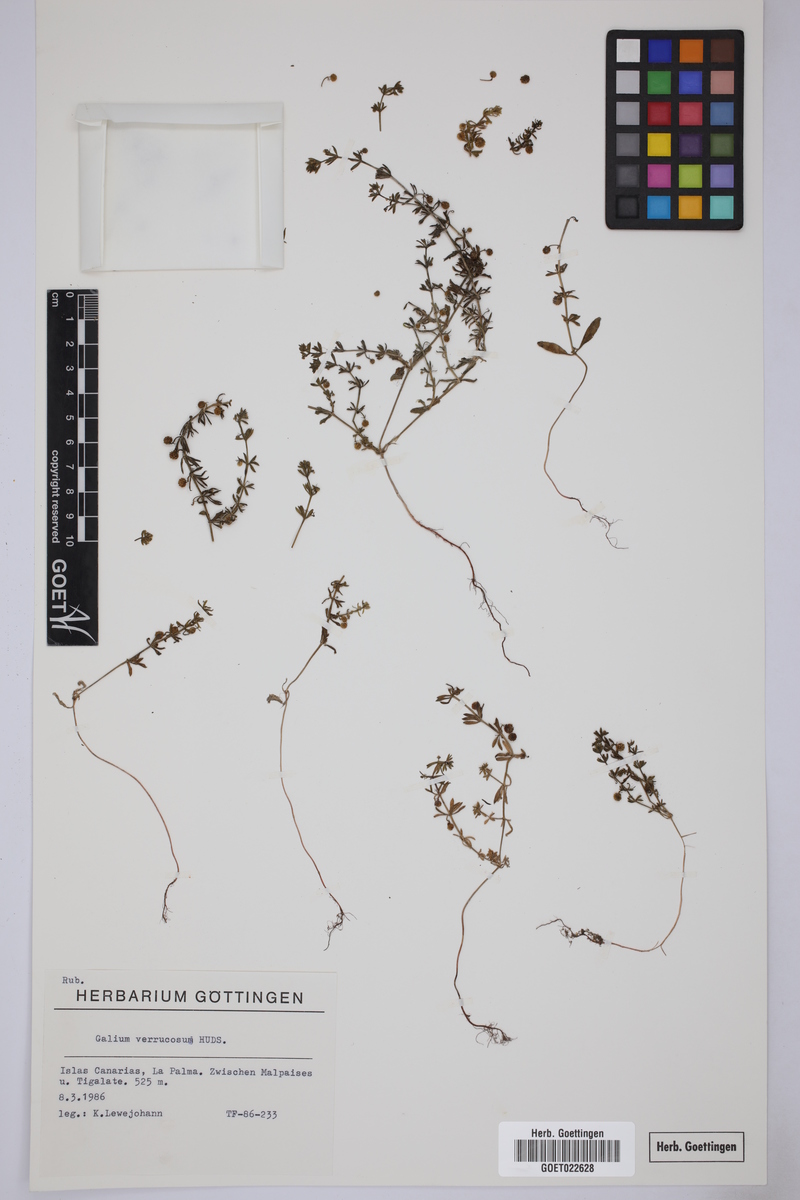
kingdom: Plantae
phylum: Tracheophyta
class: Magnoliopsida
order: Gentianales
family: Rubiaceae
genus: Galium
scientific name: Galium verrucosum
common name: Warty bedstraw
